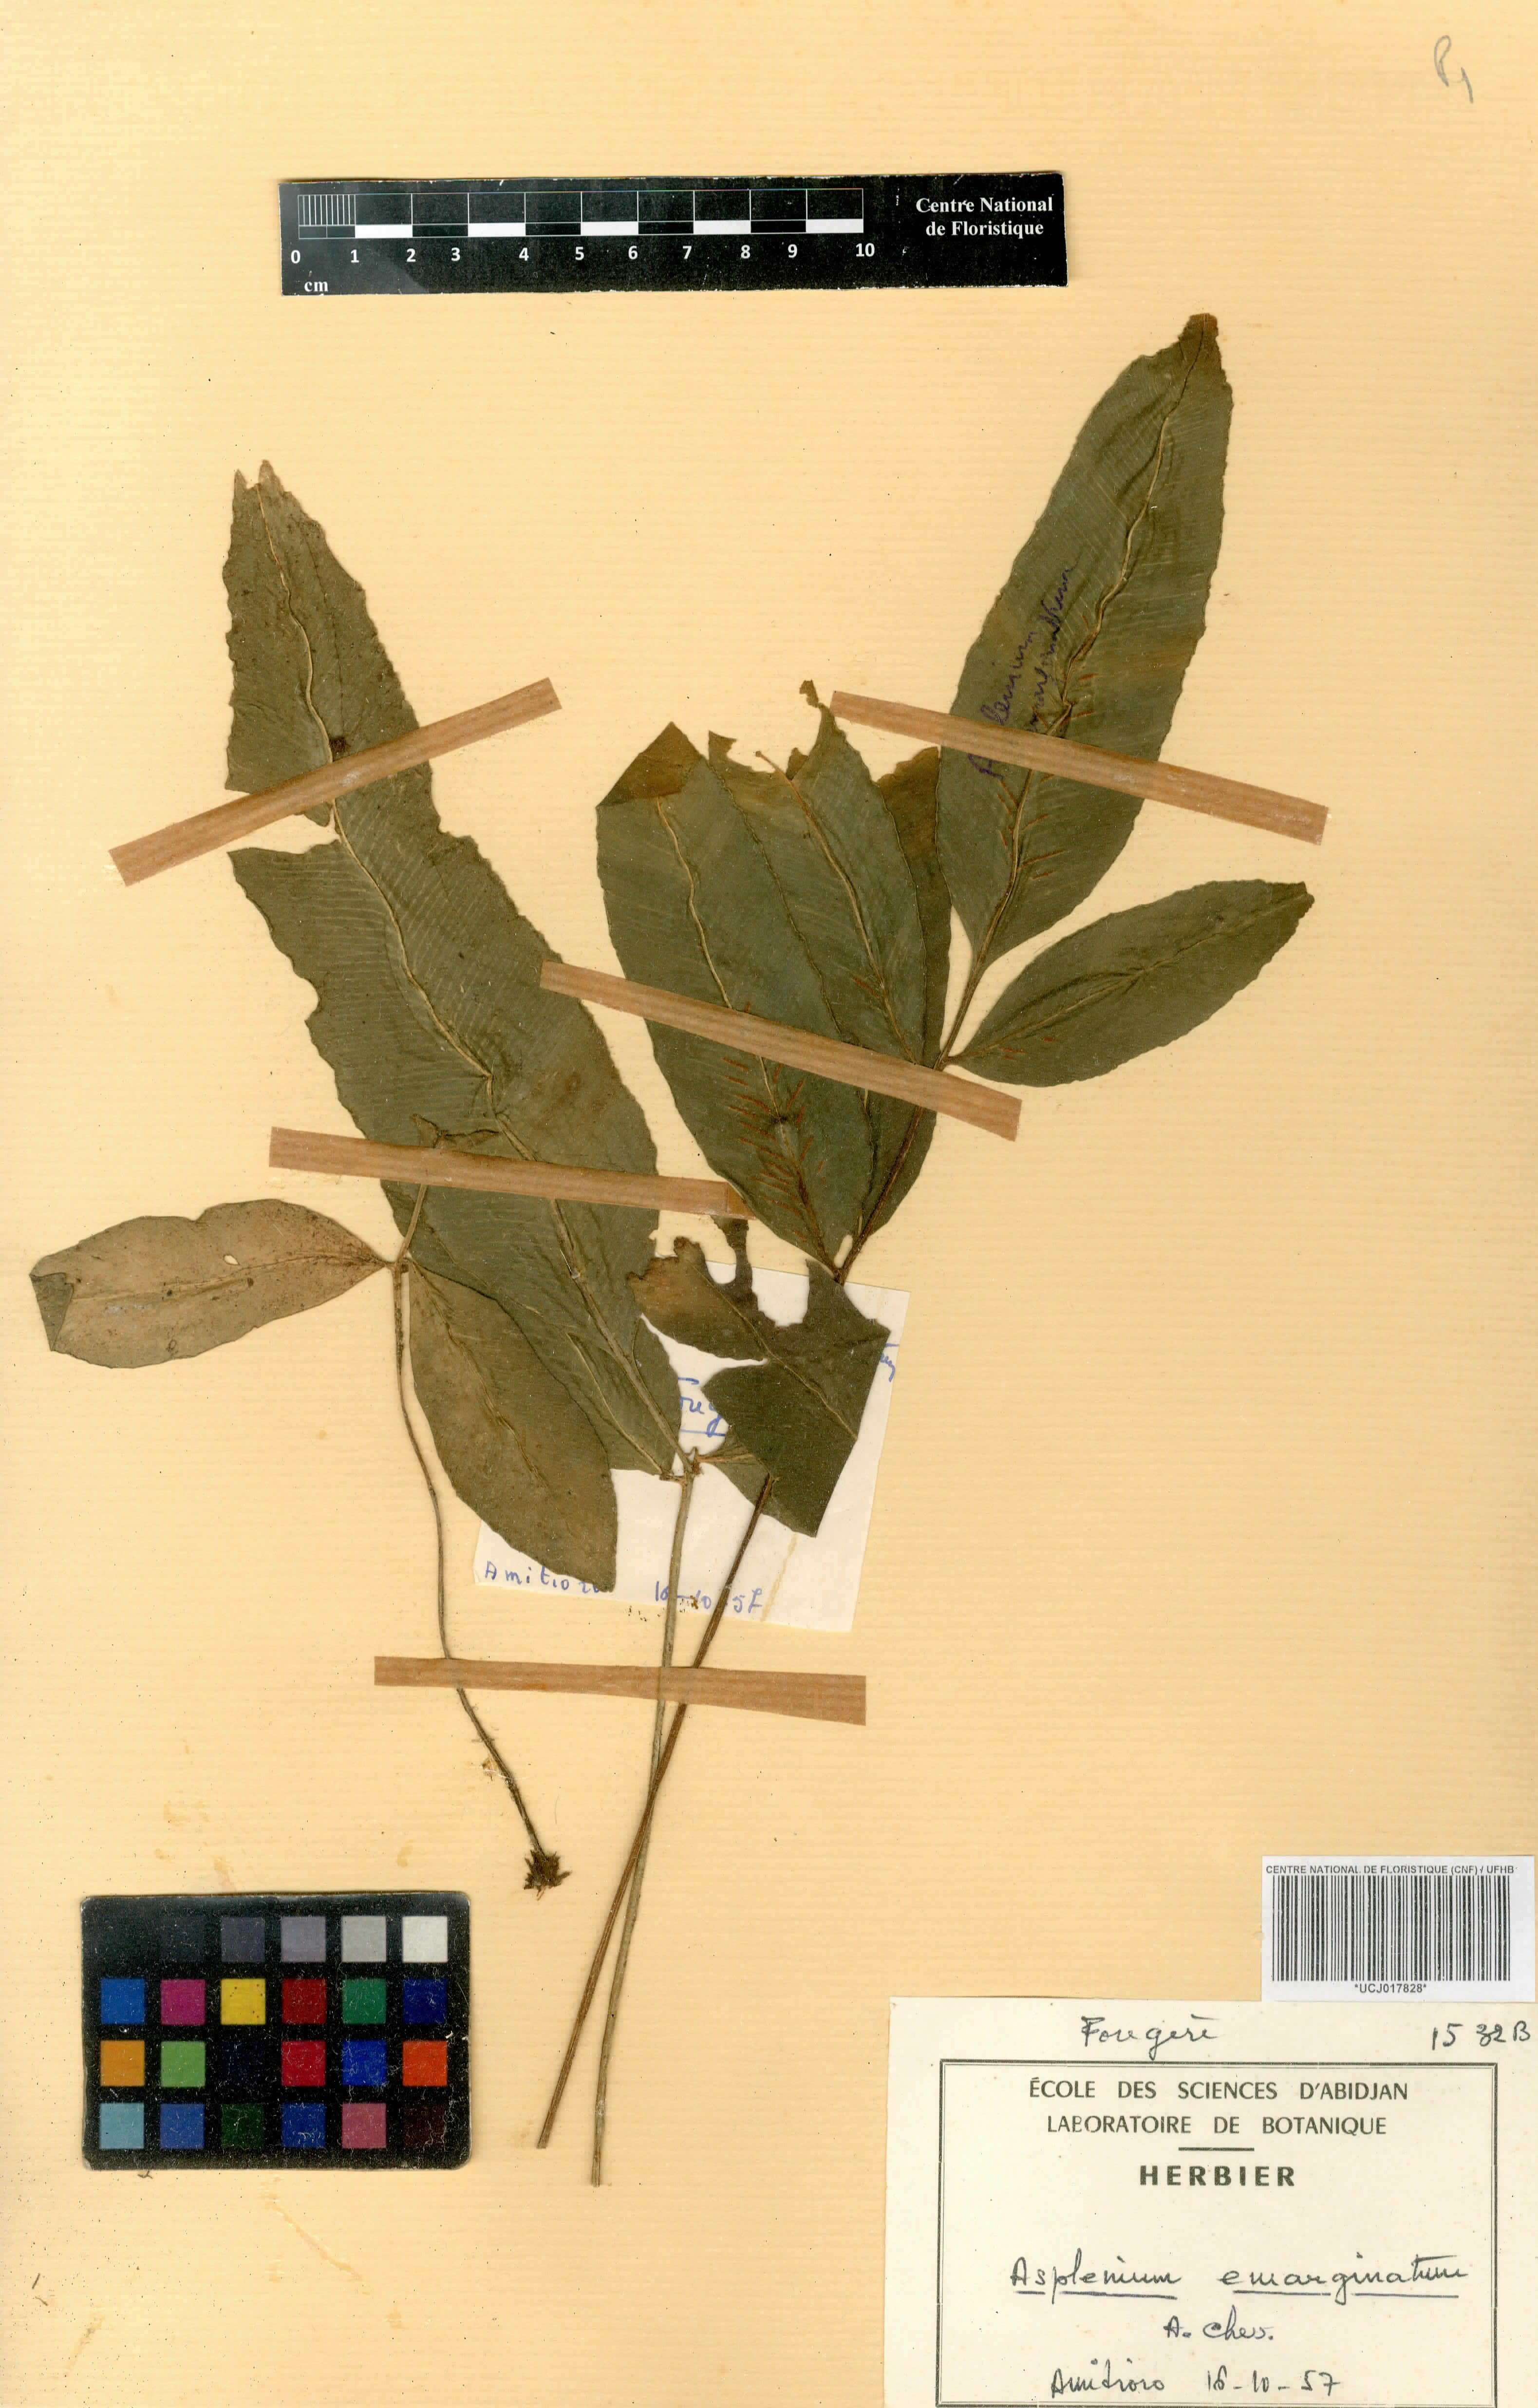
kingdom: Plantae
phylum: Tracheophyta
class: Polypodiopsida
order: Polypodiales
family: Aspleniaceae
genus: Asplenium
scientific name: Asplenium emarginatum
